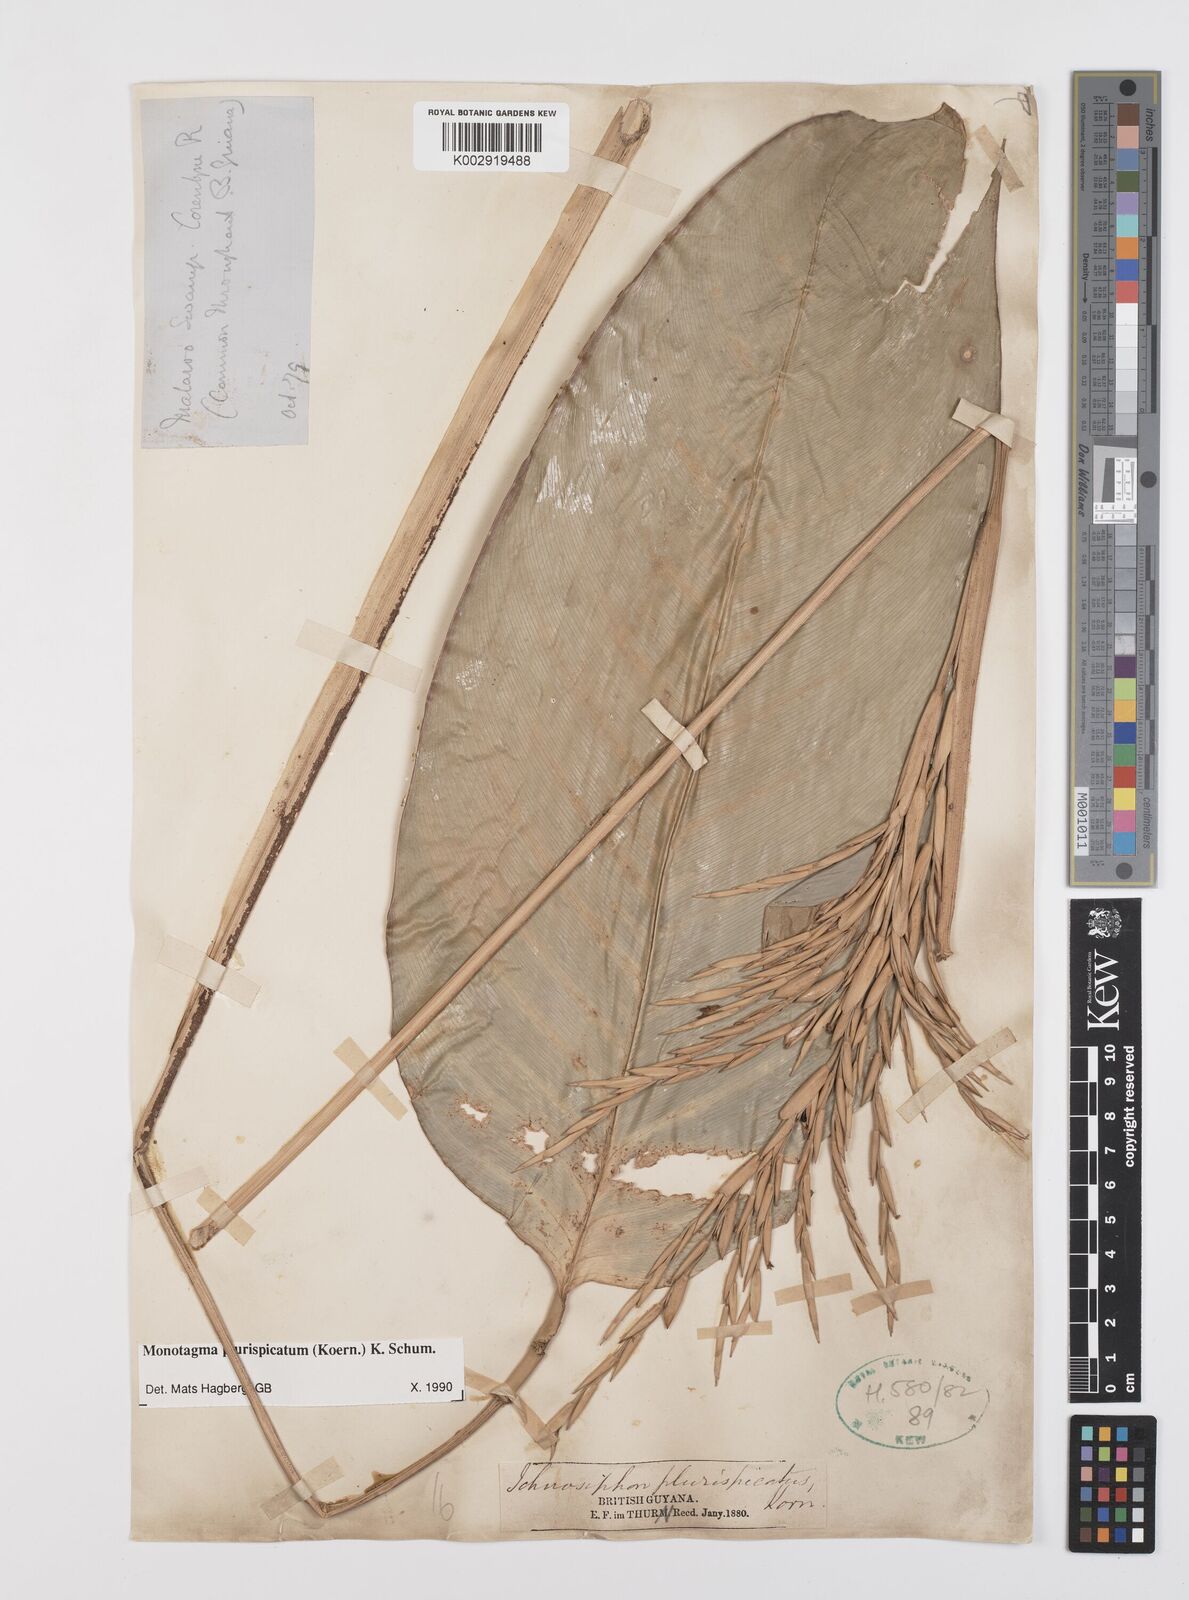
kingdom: Plantae
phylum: Tracheophyta
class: Liliopsida
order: Zingiberales
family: Marantaceae
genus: Monotagma
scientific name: Monotagma plurispicatum
